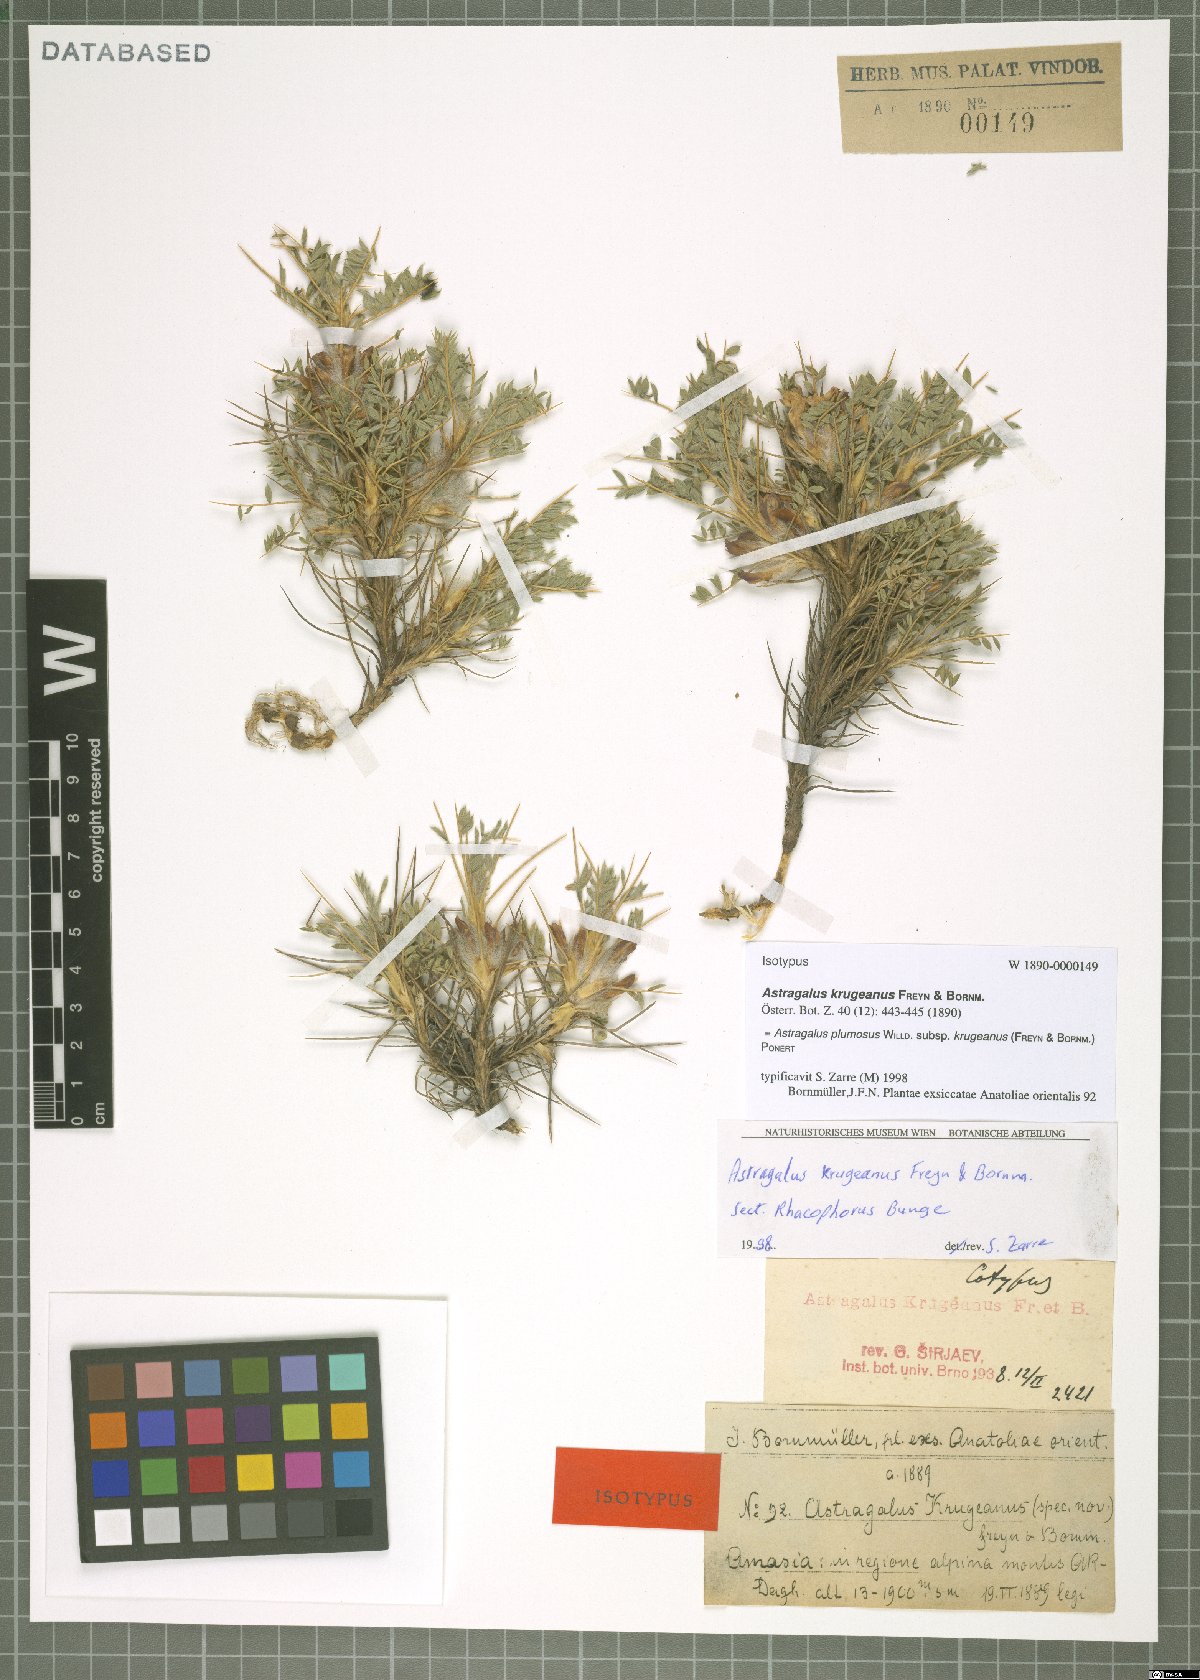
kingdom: Plantae
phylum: Tracheophyta
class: Magnoliopsida
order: Fabales
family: Fabaceae
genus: Astragalus
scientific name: Astragalus plumosus
